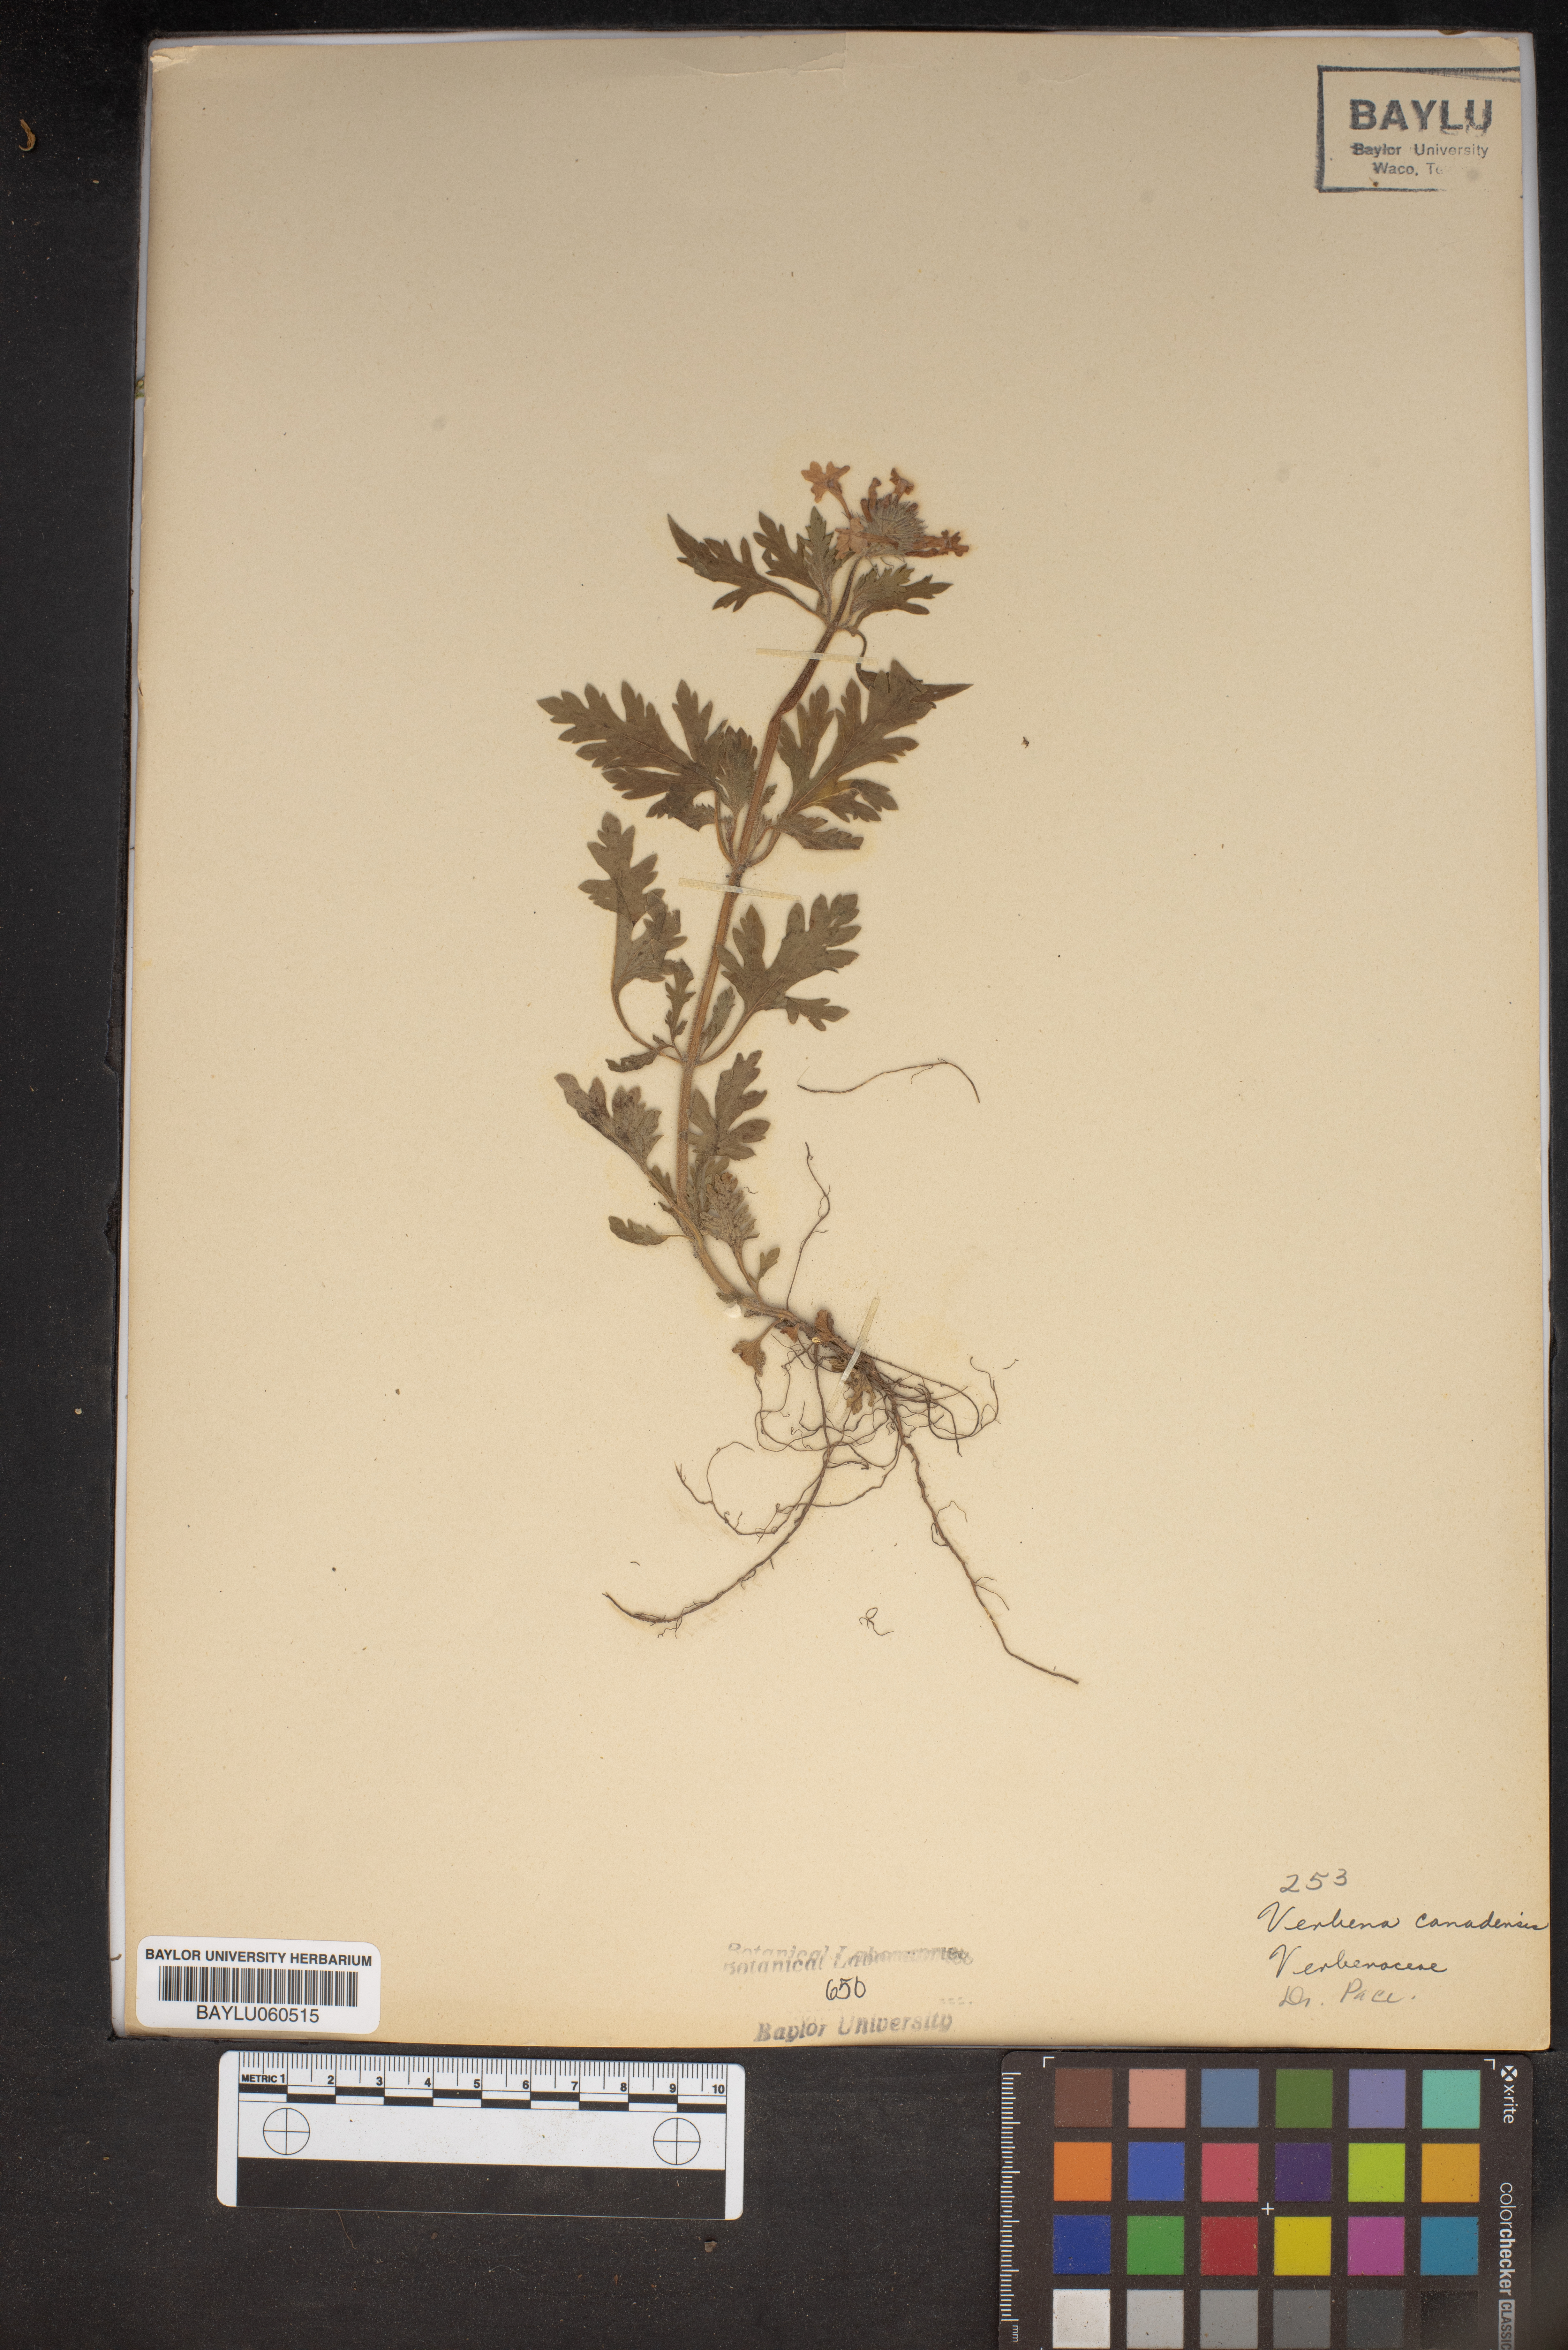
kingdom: Plantae
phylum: Tracheophyta
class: Magnoliopsida
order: Lamiales
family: Verbenaceae
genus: Verbena
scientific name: Verbena canadensis
